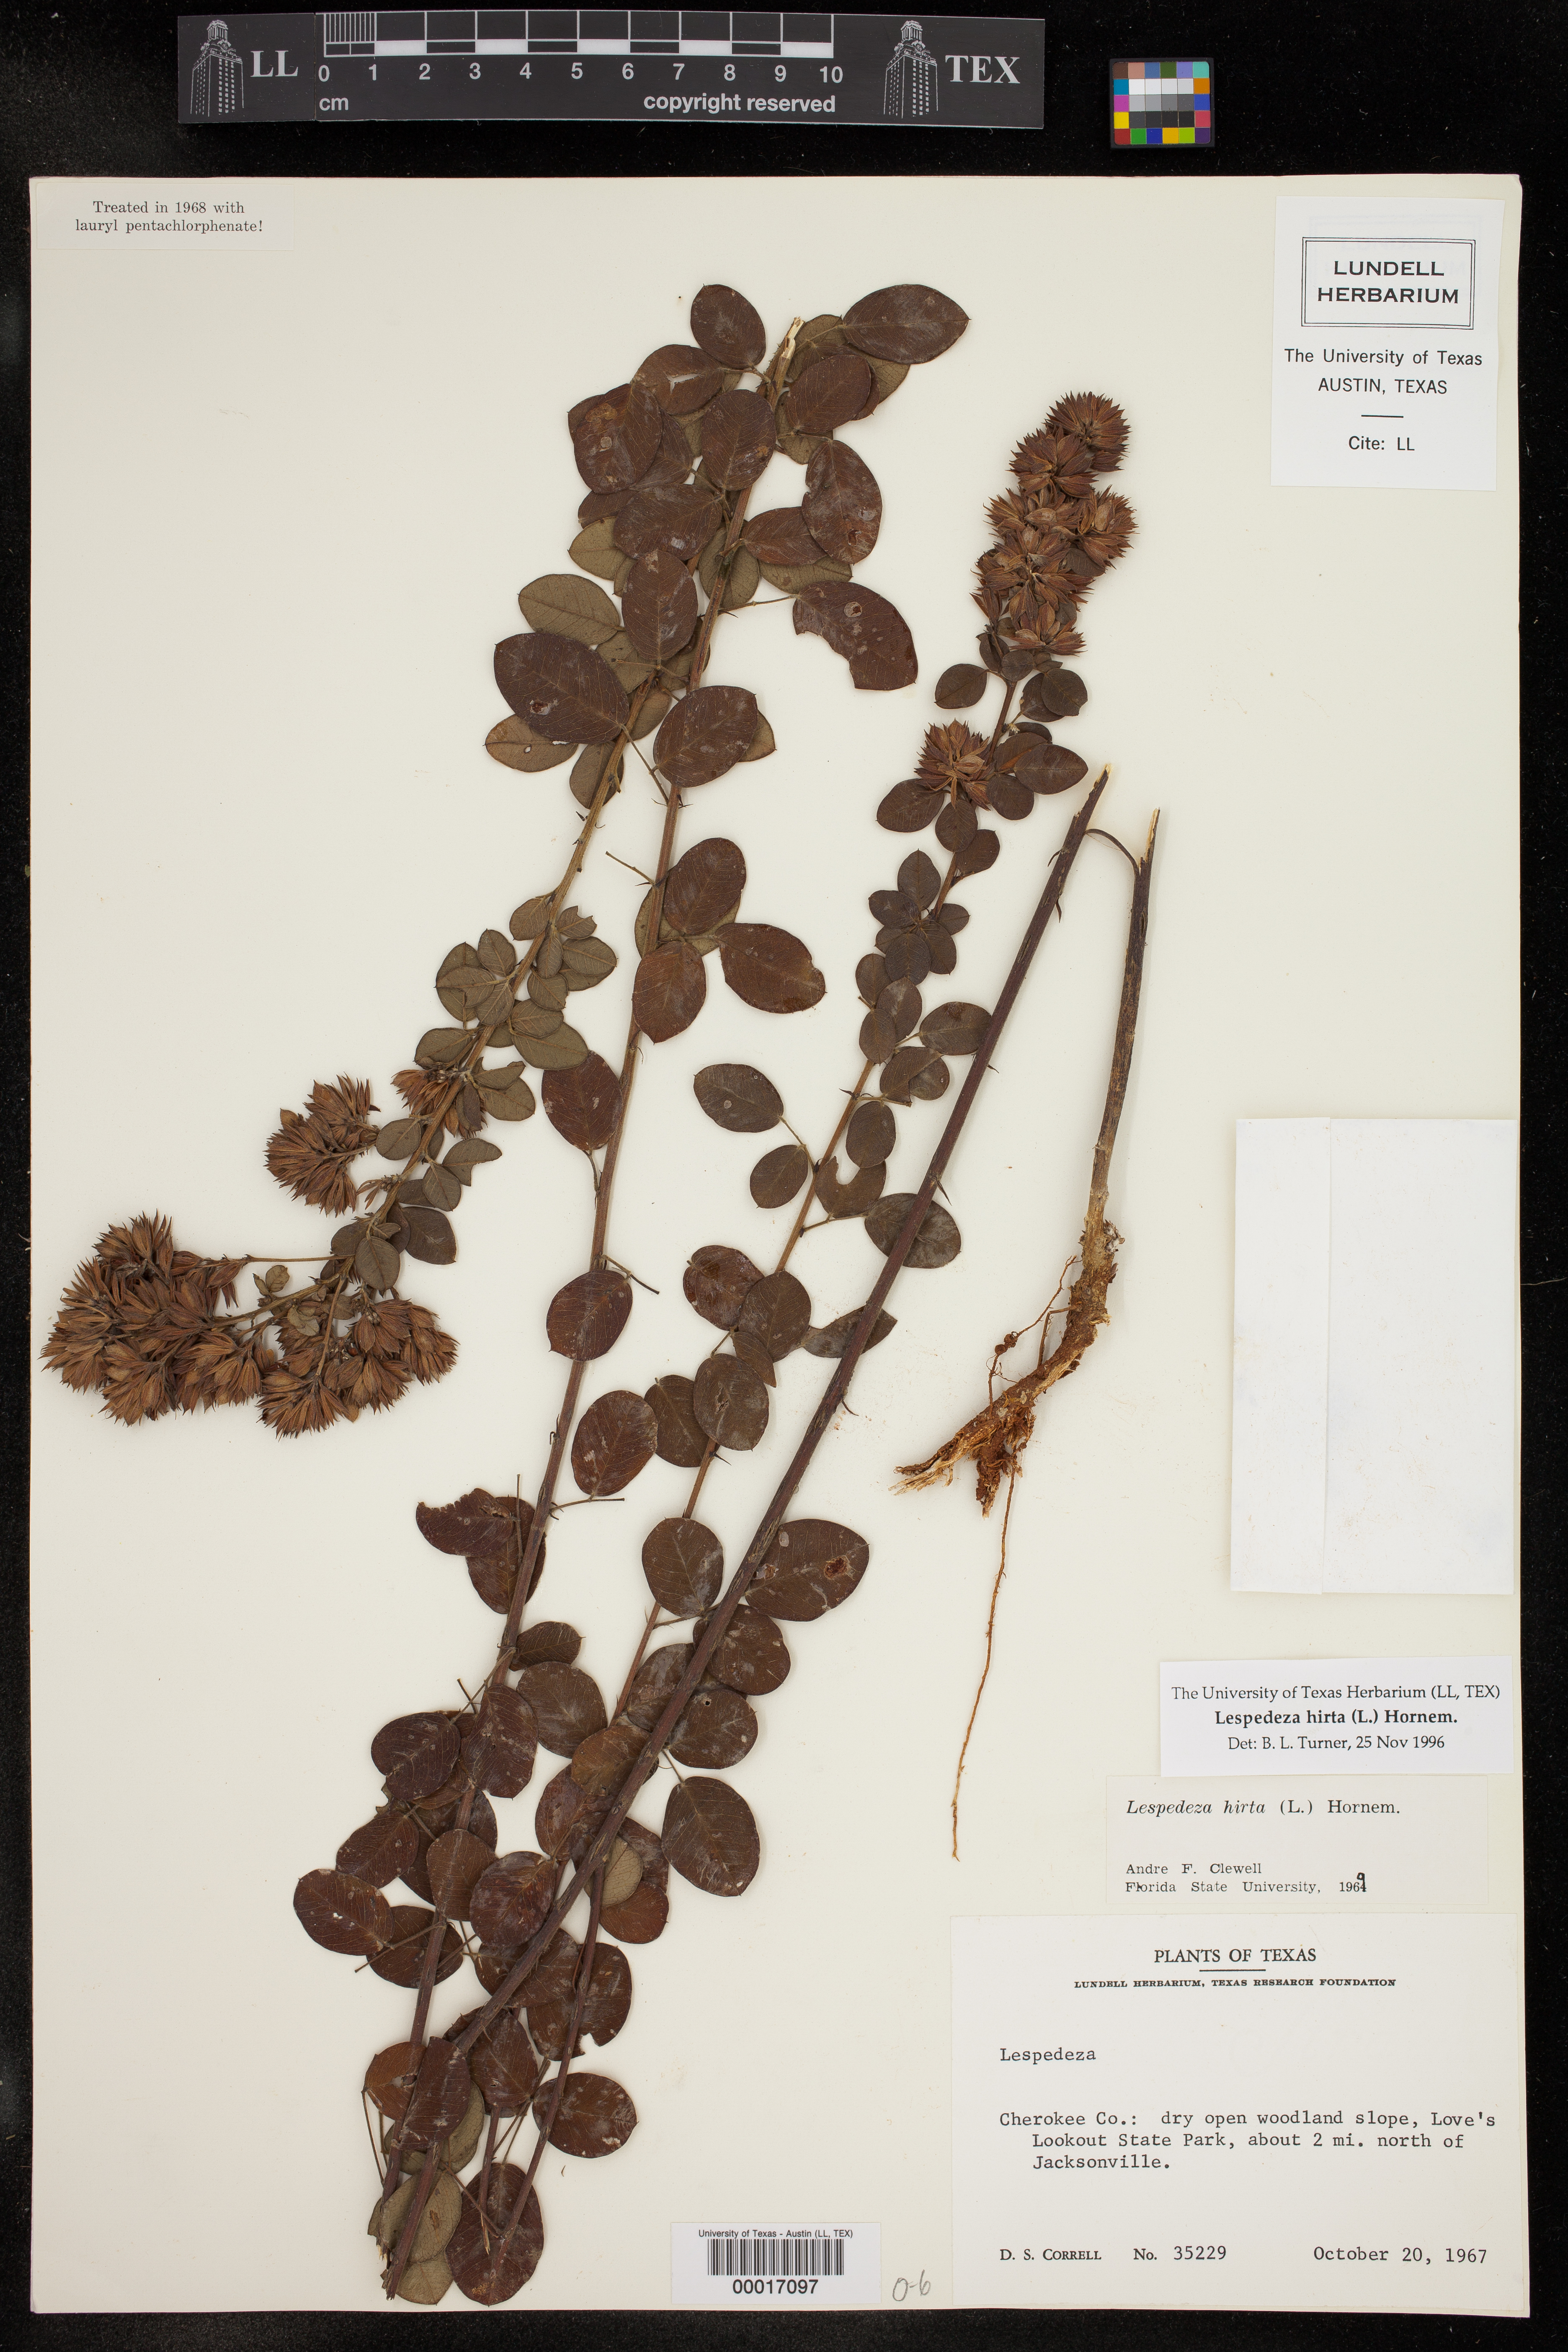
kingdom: Plantae
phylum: Tracheophyta
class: Magnoliopsida
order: Fabales
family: Fabaceae
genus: Lespedeza
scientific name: Lespedeza hirta
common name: Hairy lespedeza
